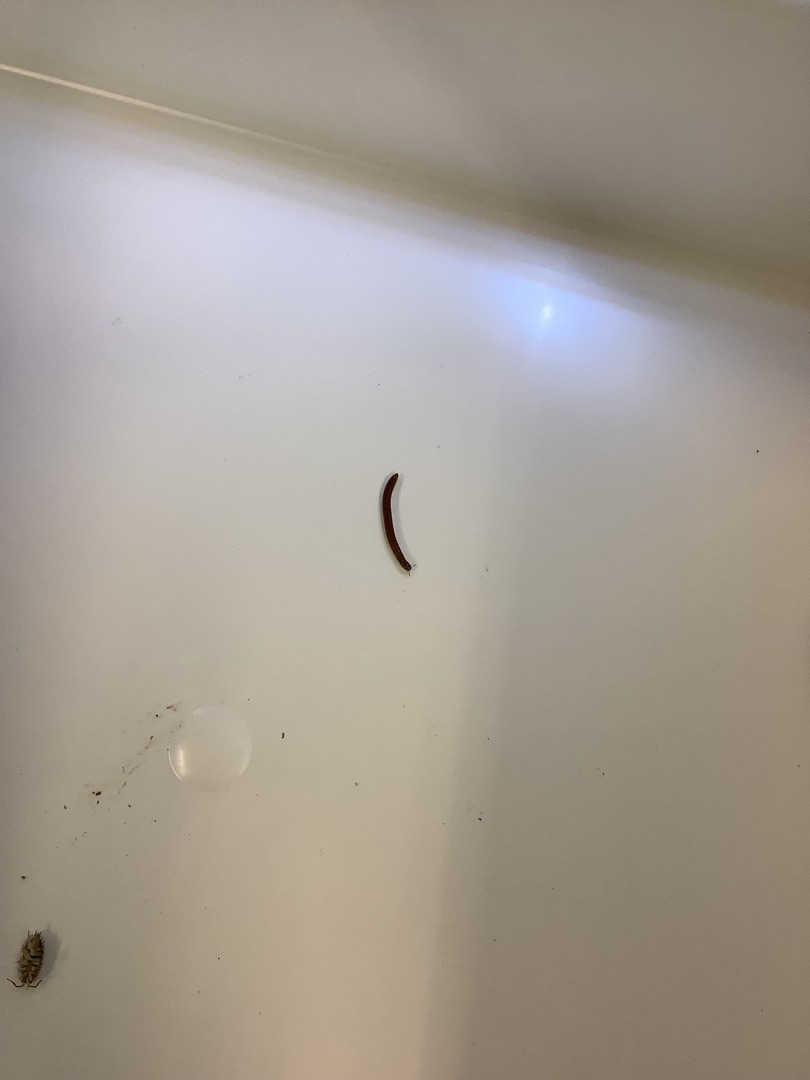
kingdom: Animalia
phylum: Arthropoda
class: Diplopoda
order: Julida
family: Julidae
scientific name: Julidae
